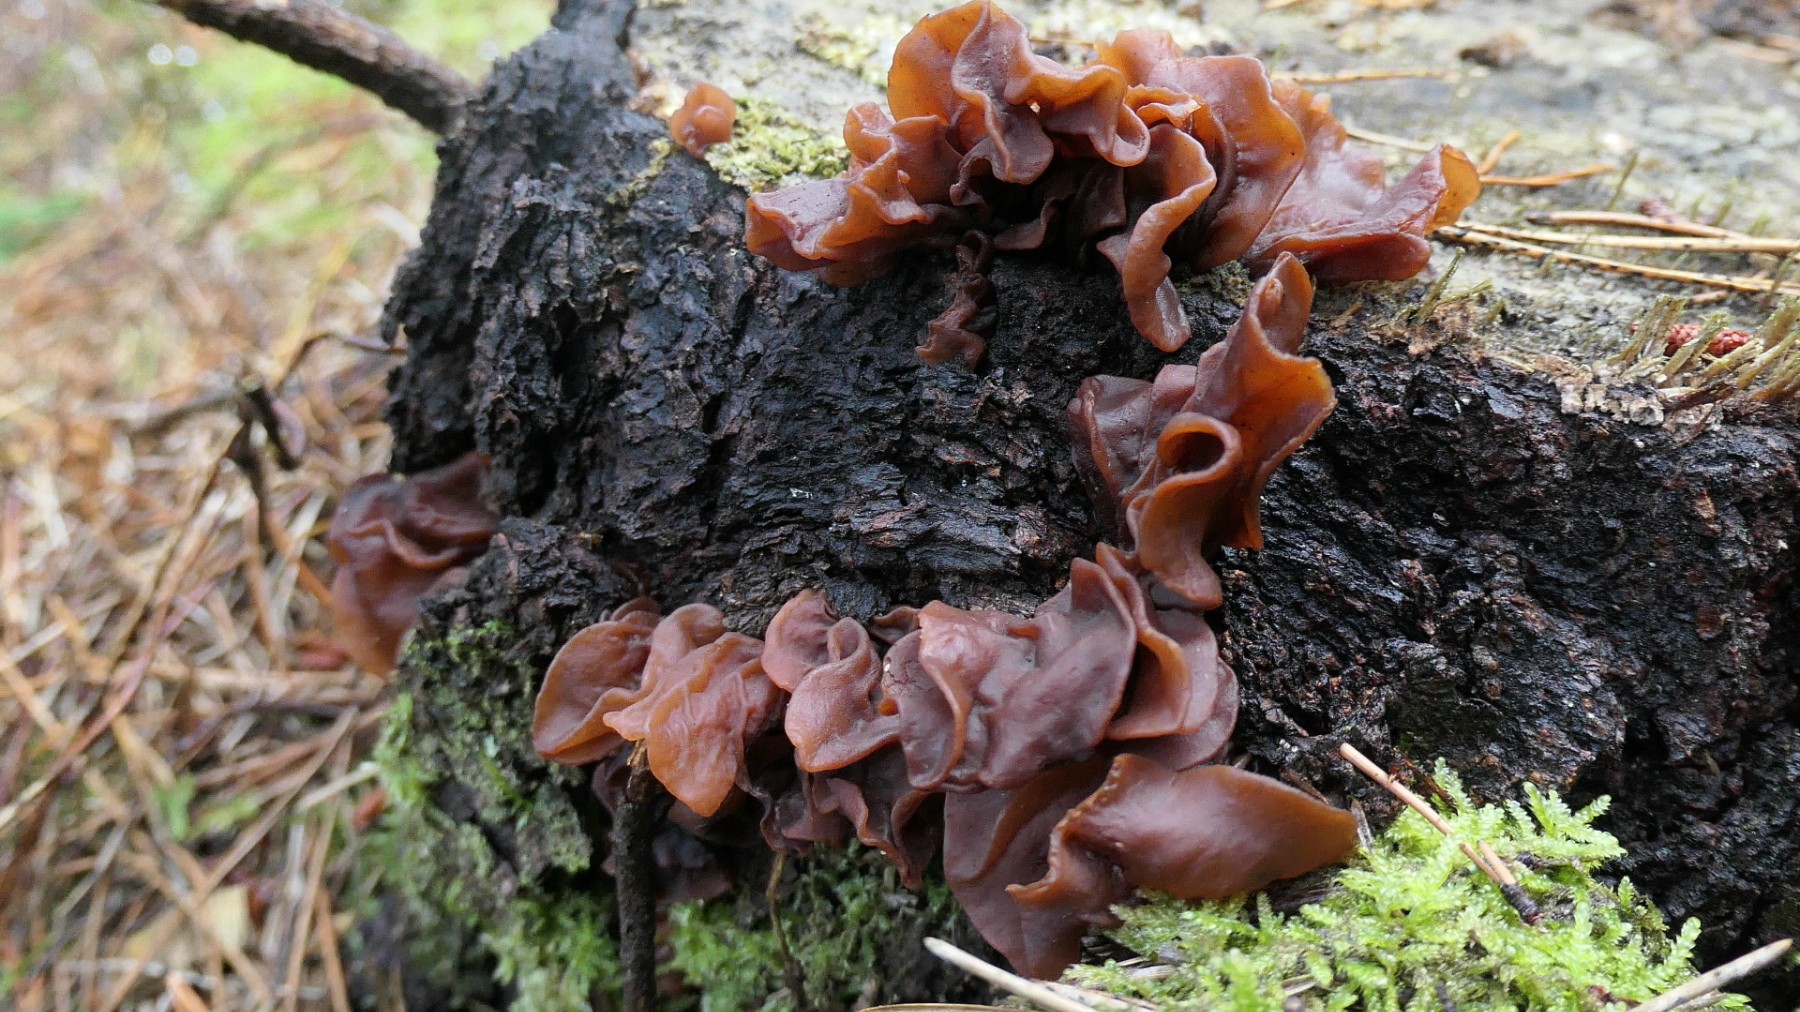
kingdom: Fungi
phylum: Basidiomycota
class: Tremellomycetes
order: Tremellales
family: Tremellaceae
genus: Phaeotremella
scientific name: Phaeotremella foliacea
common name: brun bævresvamp
